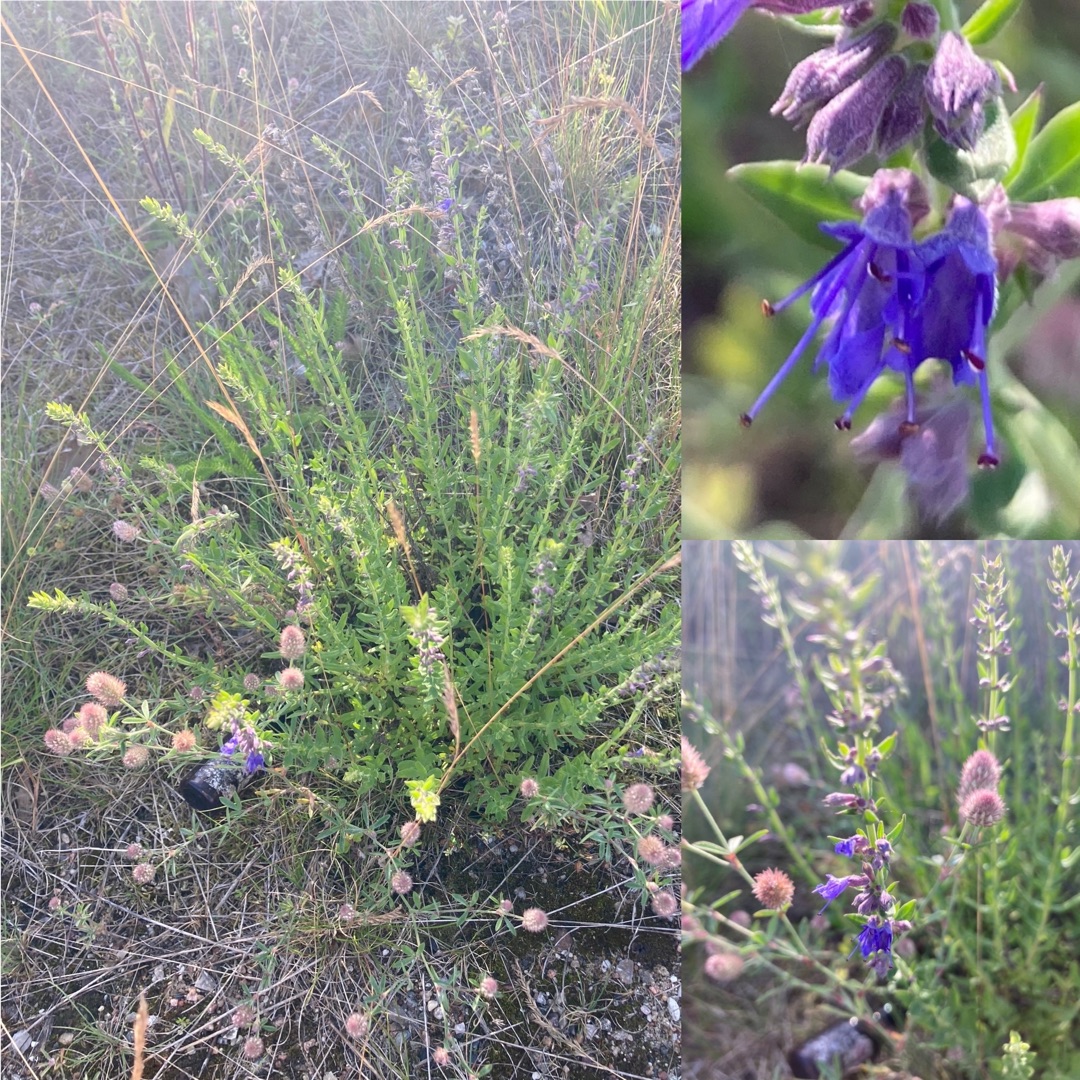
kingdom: Plantae
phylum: Tracheophyta
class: Magnoliopsida
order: Lamiales
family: Lamiaceae
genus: Hyssopus
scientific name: Hyssopus officinalis
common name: Isop
